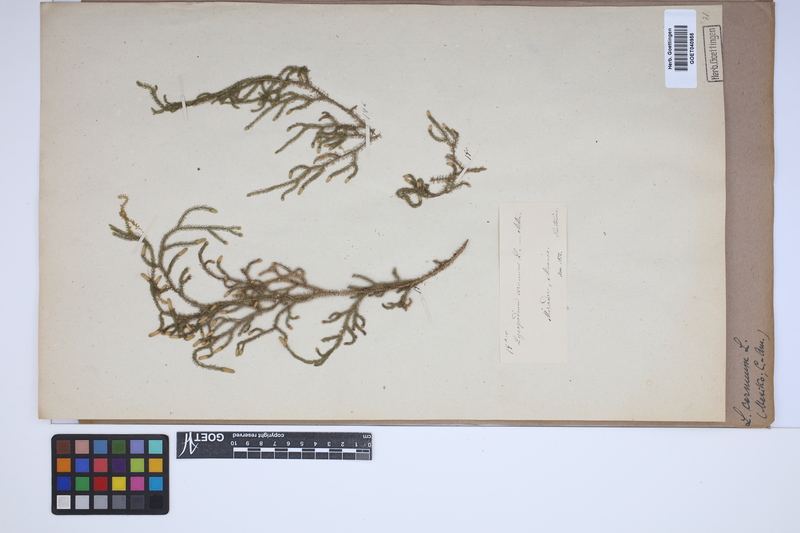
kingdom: Plantae
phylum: Tracheophyta
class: Lycopodiopsida
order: Lycopodiales
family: Lycopodiaceae
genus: Palhinhaea
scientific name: Palhinhaea cernua
